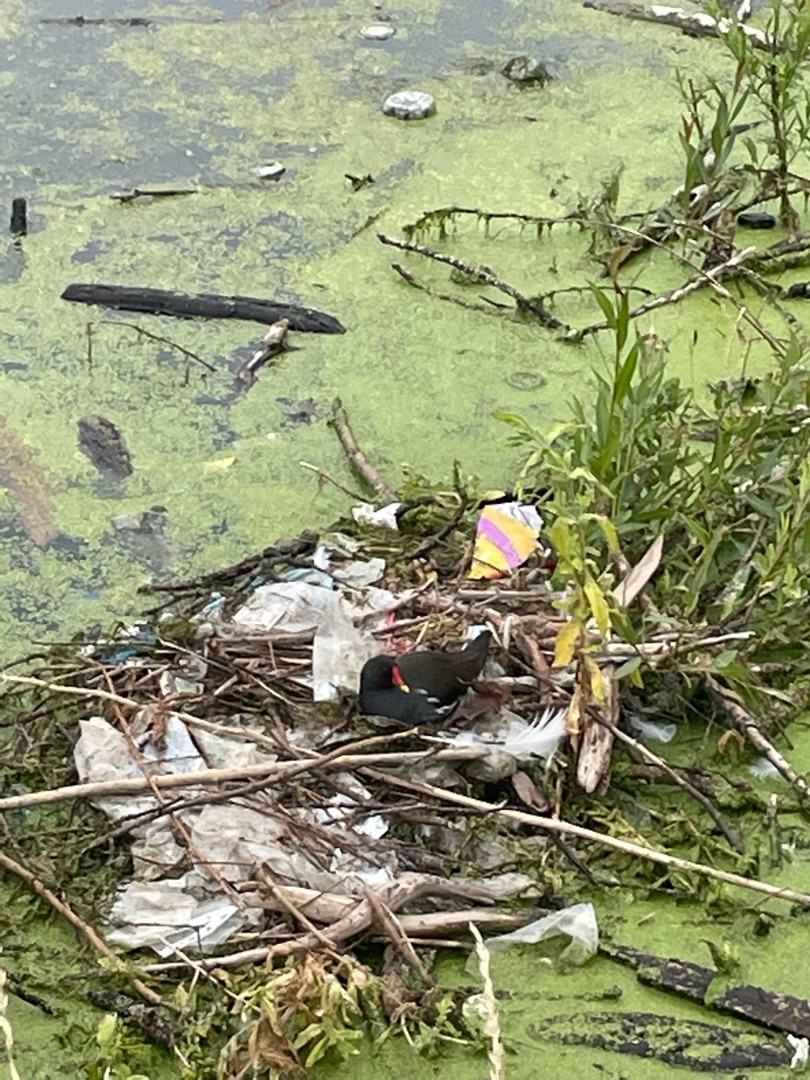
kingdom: Animalia
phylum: Chordata
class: Aves
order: Gruiformes
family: Rallidae
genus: Gallinula
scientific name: Gallinula chloropus
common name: Grønbenet rørhøne
